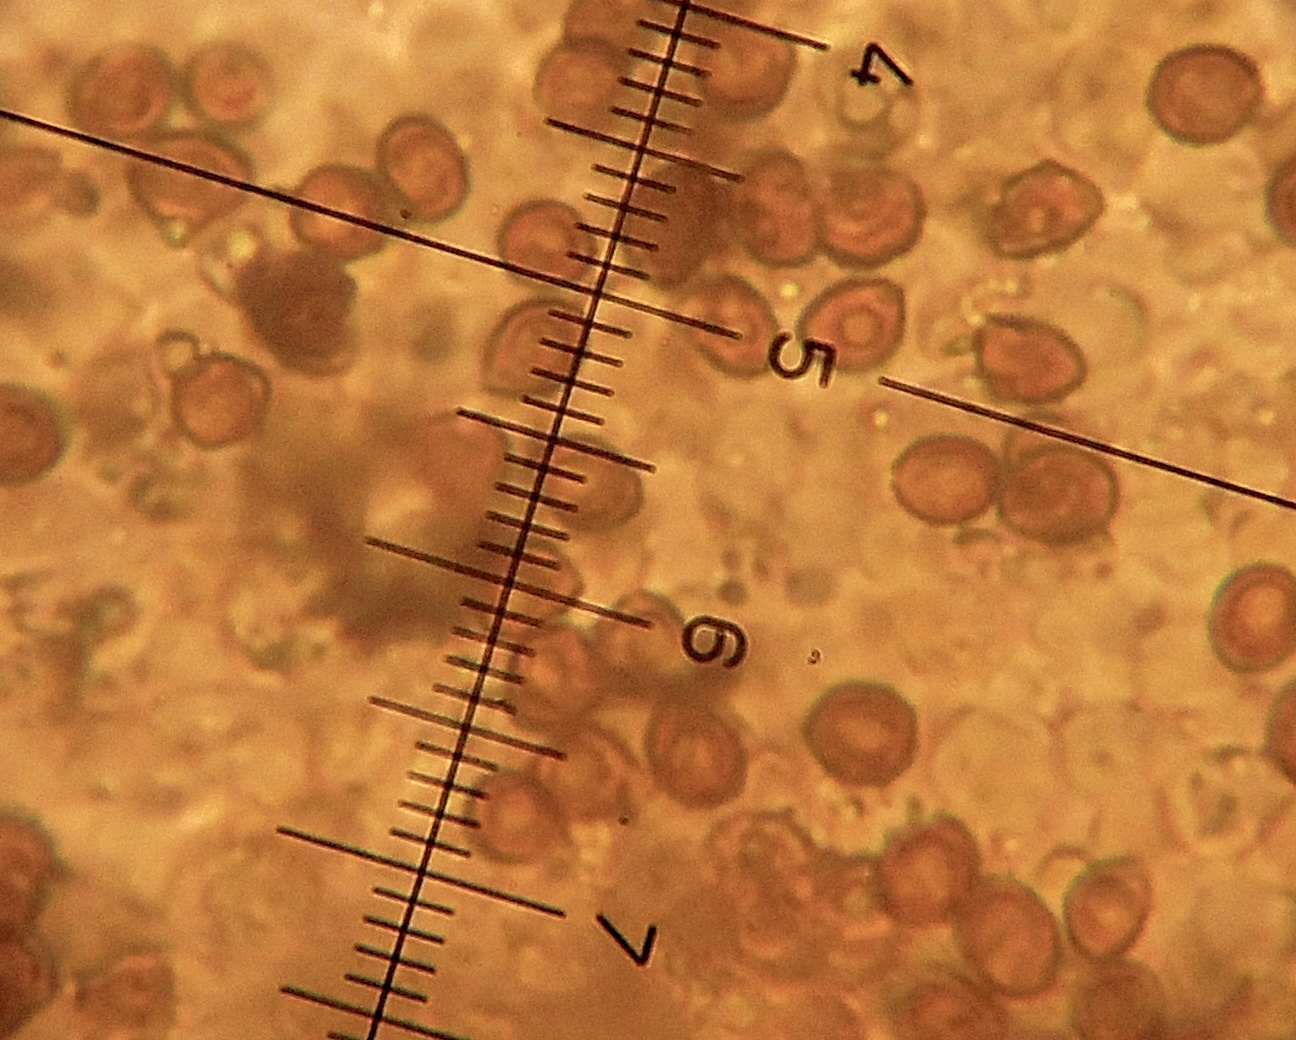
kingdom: Fungi
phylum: Basidiomycota
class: Agaricomycetes
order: Agaricales
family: Cortinariaceae
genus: Cortinarius
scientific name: Cortinarius
